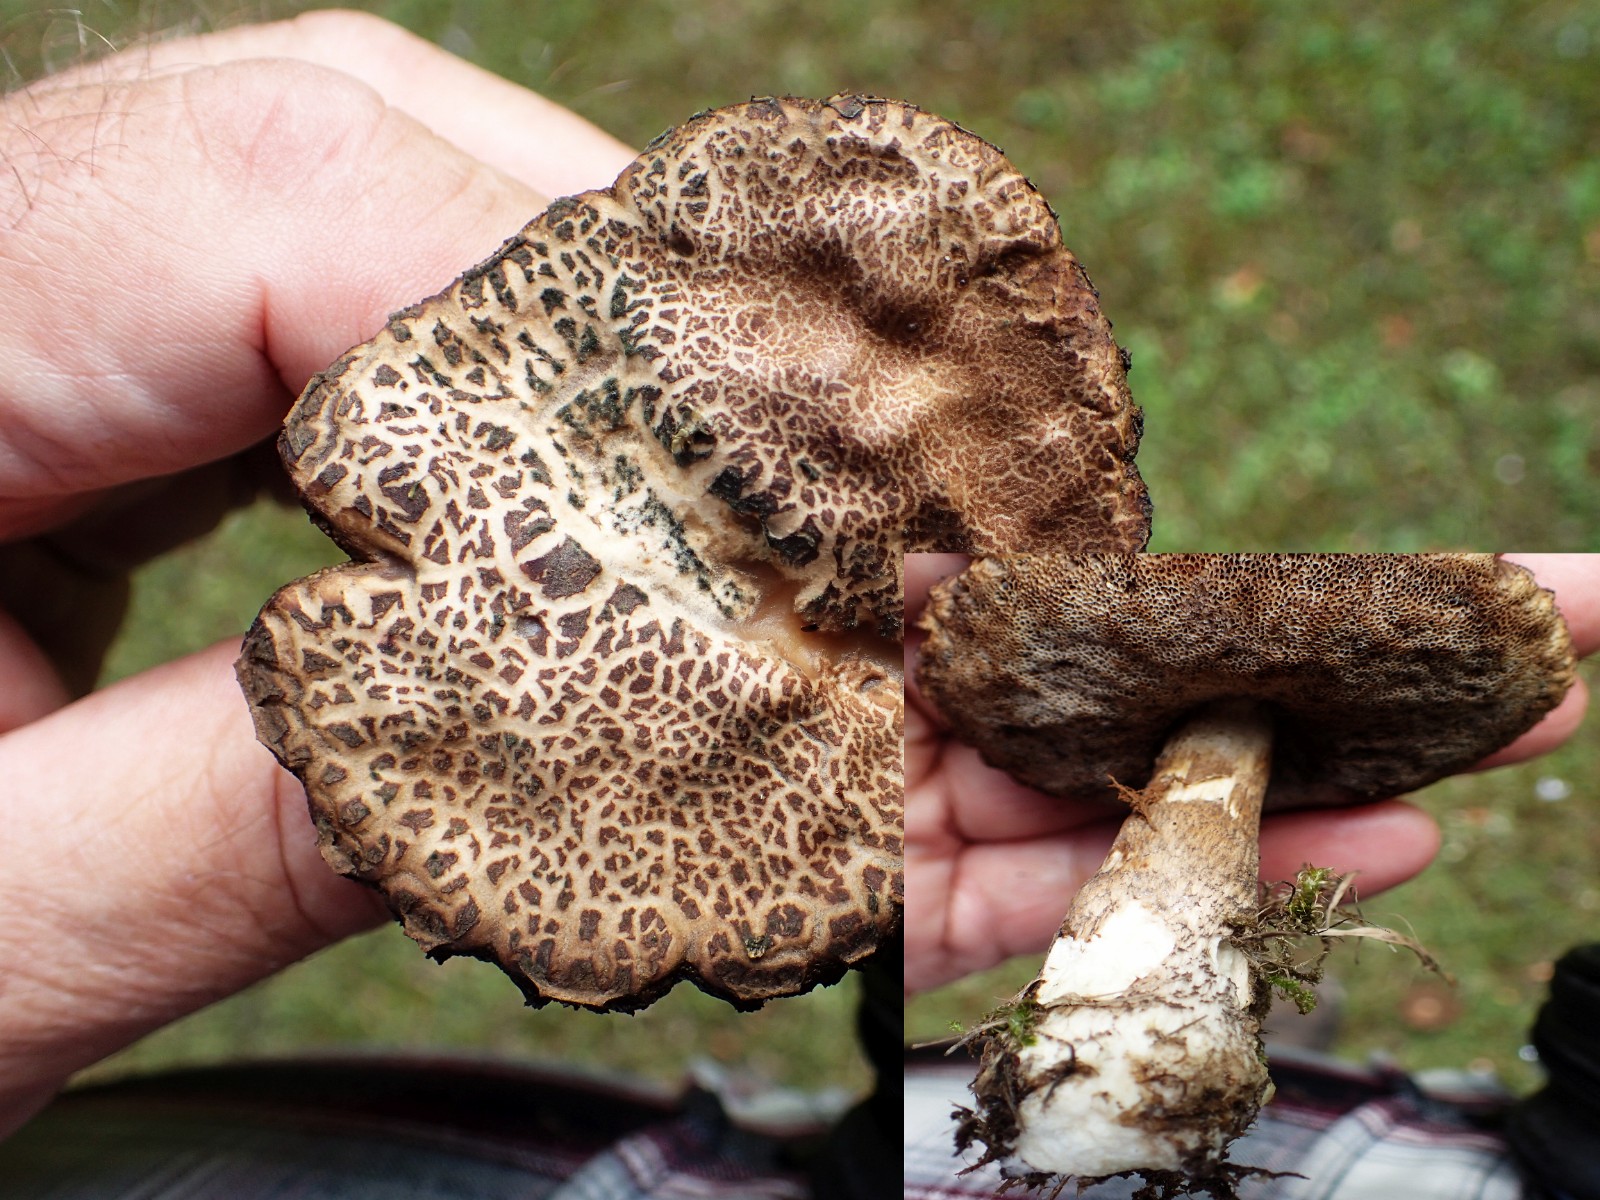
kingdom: Fungi
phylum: Basidiomycota
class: Agaricomycetes
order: Boletales
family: Boletaceae
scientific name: Boletaceae
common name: rørhatfamilien
